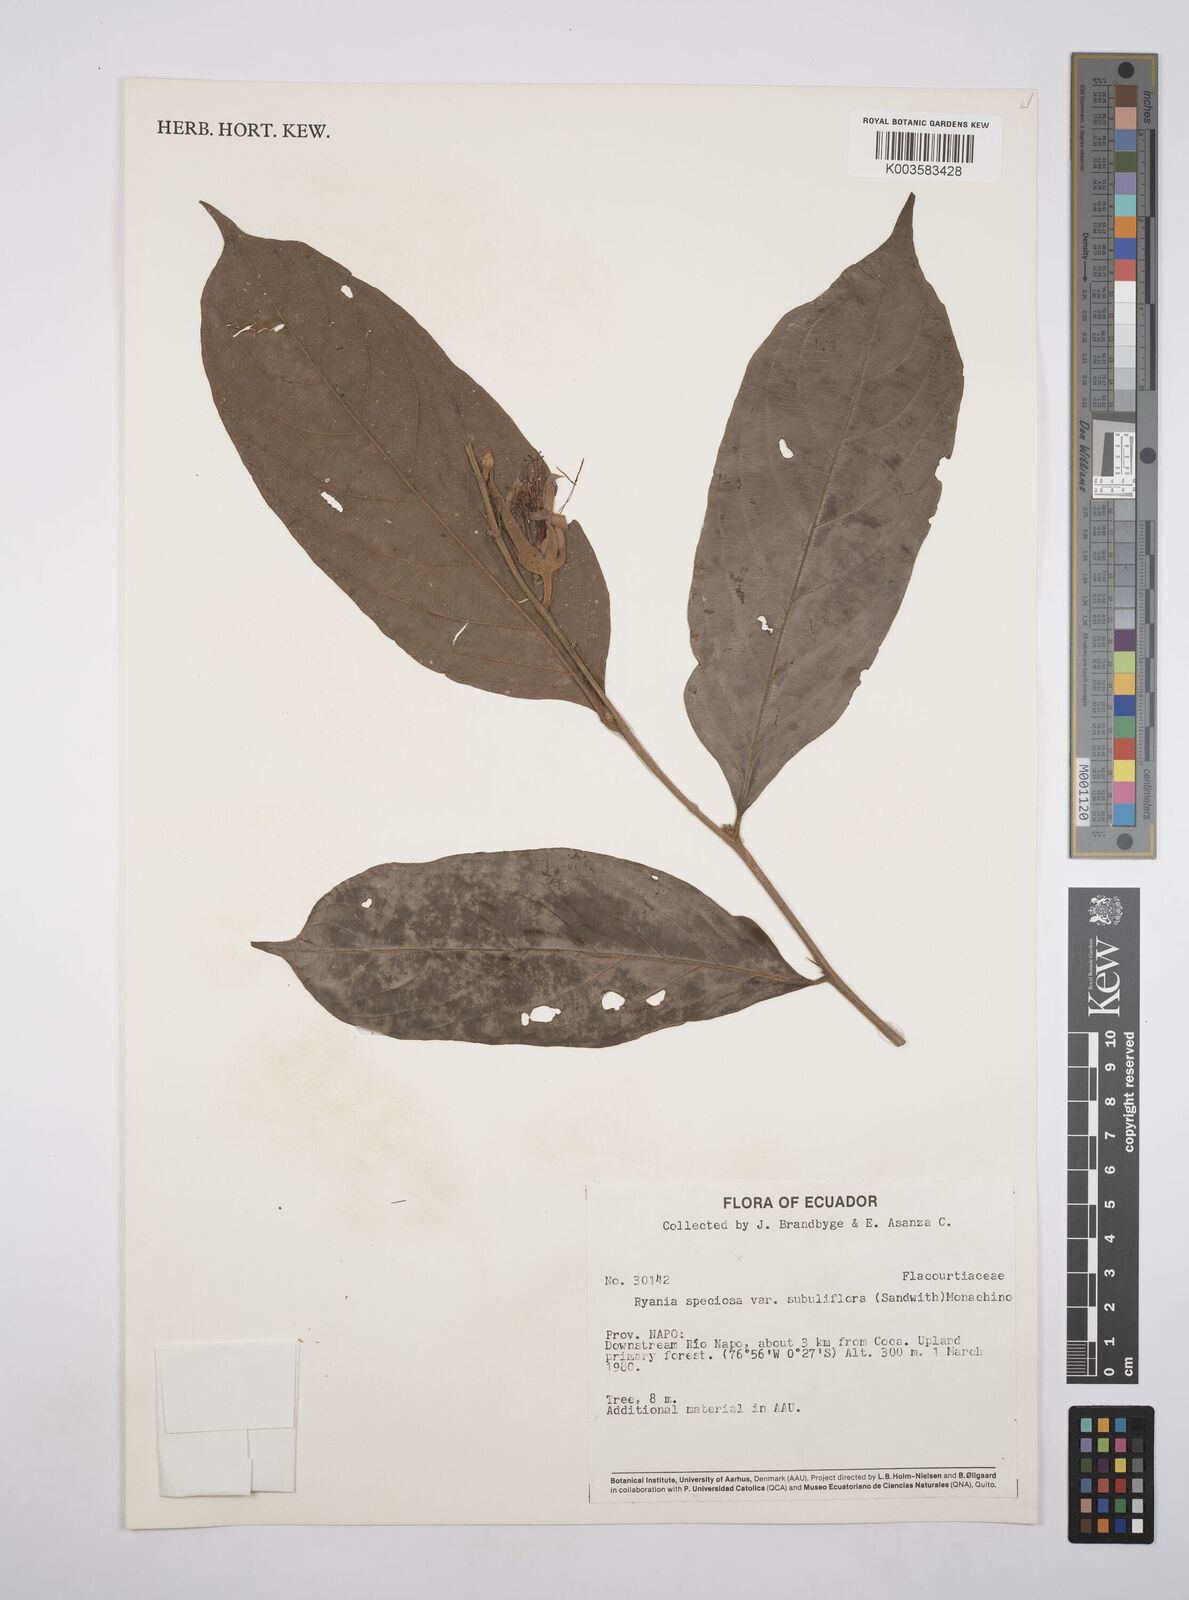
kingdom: Plantae
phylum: Tracheophyta
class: Magnoliopsida
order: Malpighiales
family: Salicaceae
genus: Ryania
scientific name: Ryania speciosa
